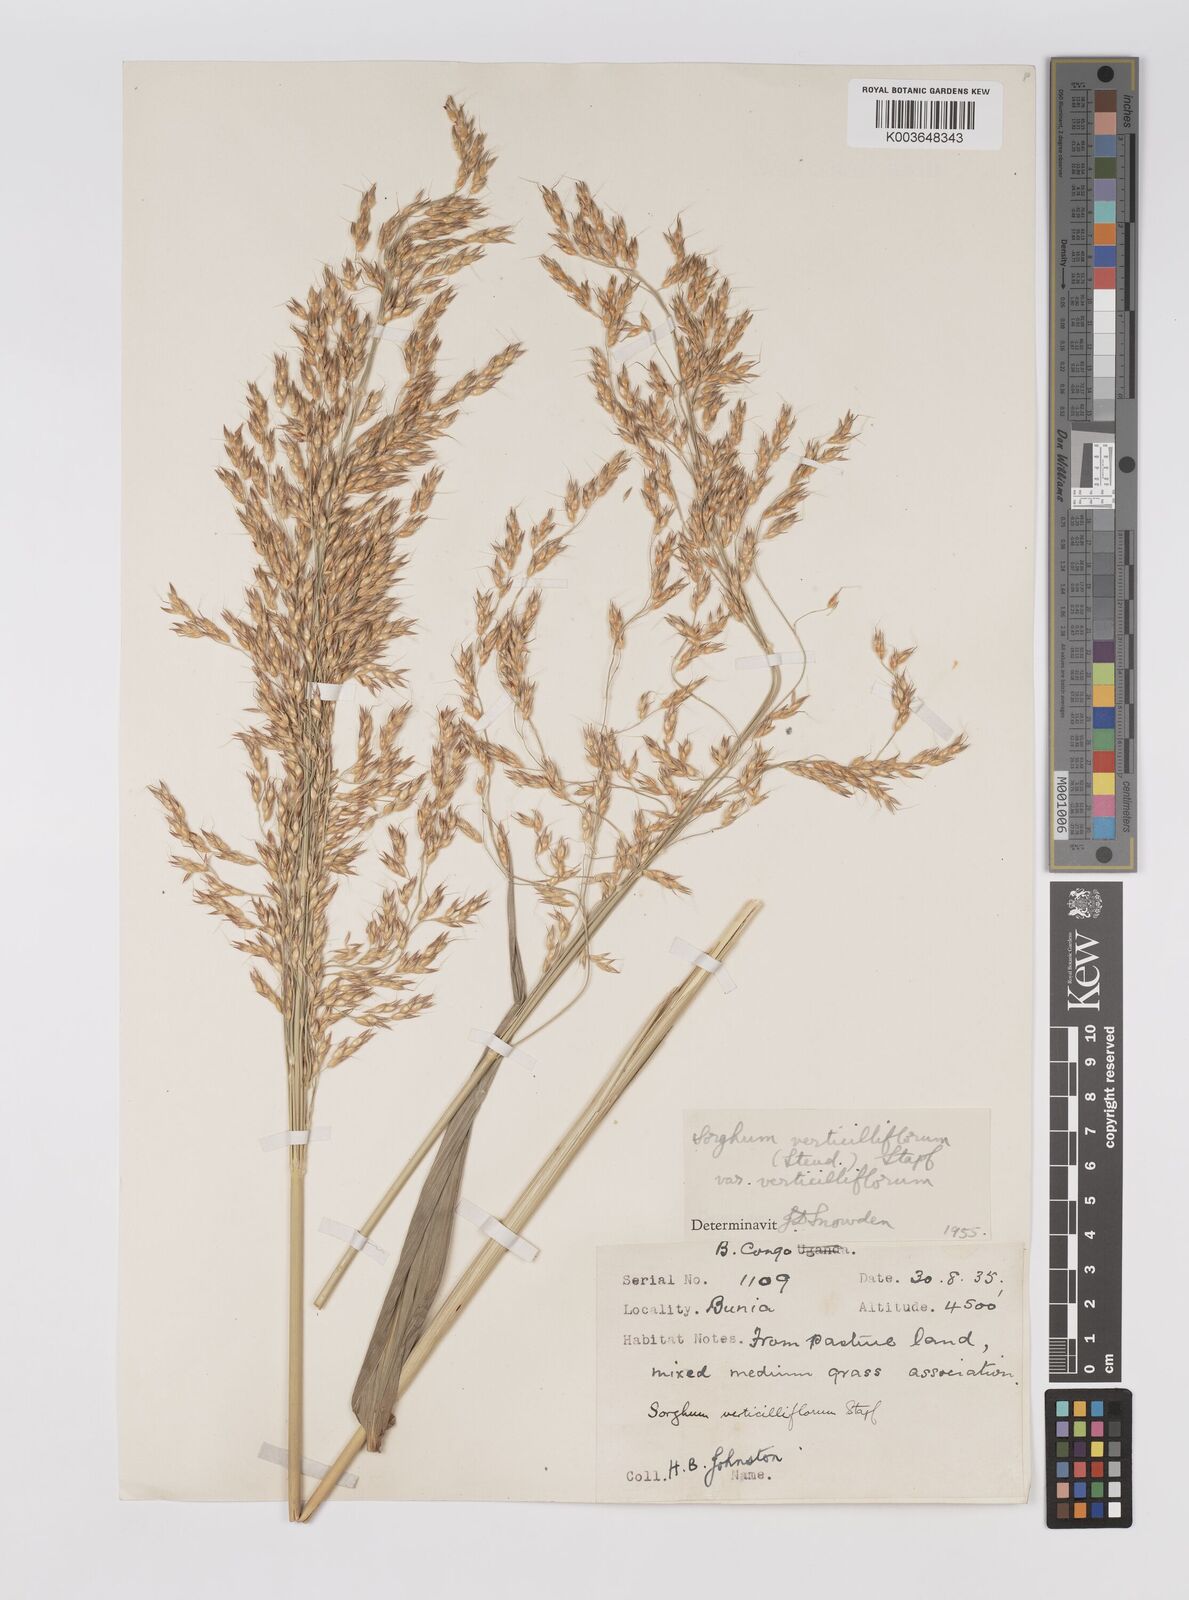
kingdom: Plantae
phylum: Tracheophyta
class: Liliopsida
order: Poales
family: Poaceae
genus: Sorghum
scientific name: Sorghum arundinaceum
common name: Sorghum
